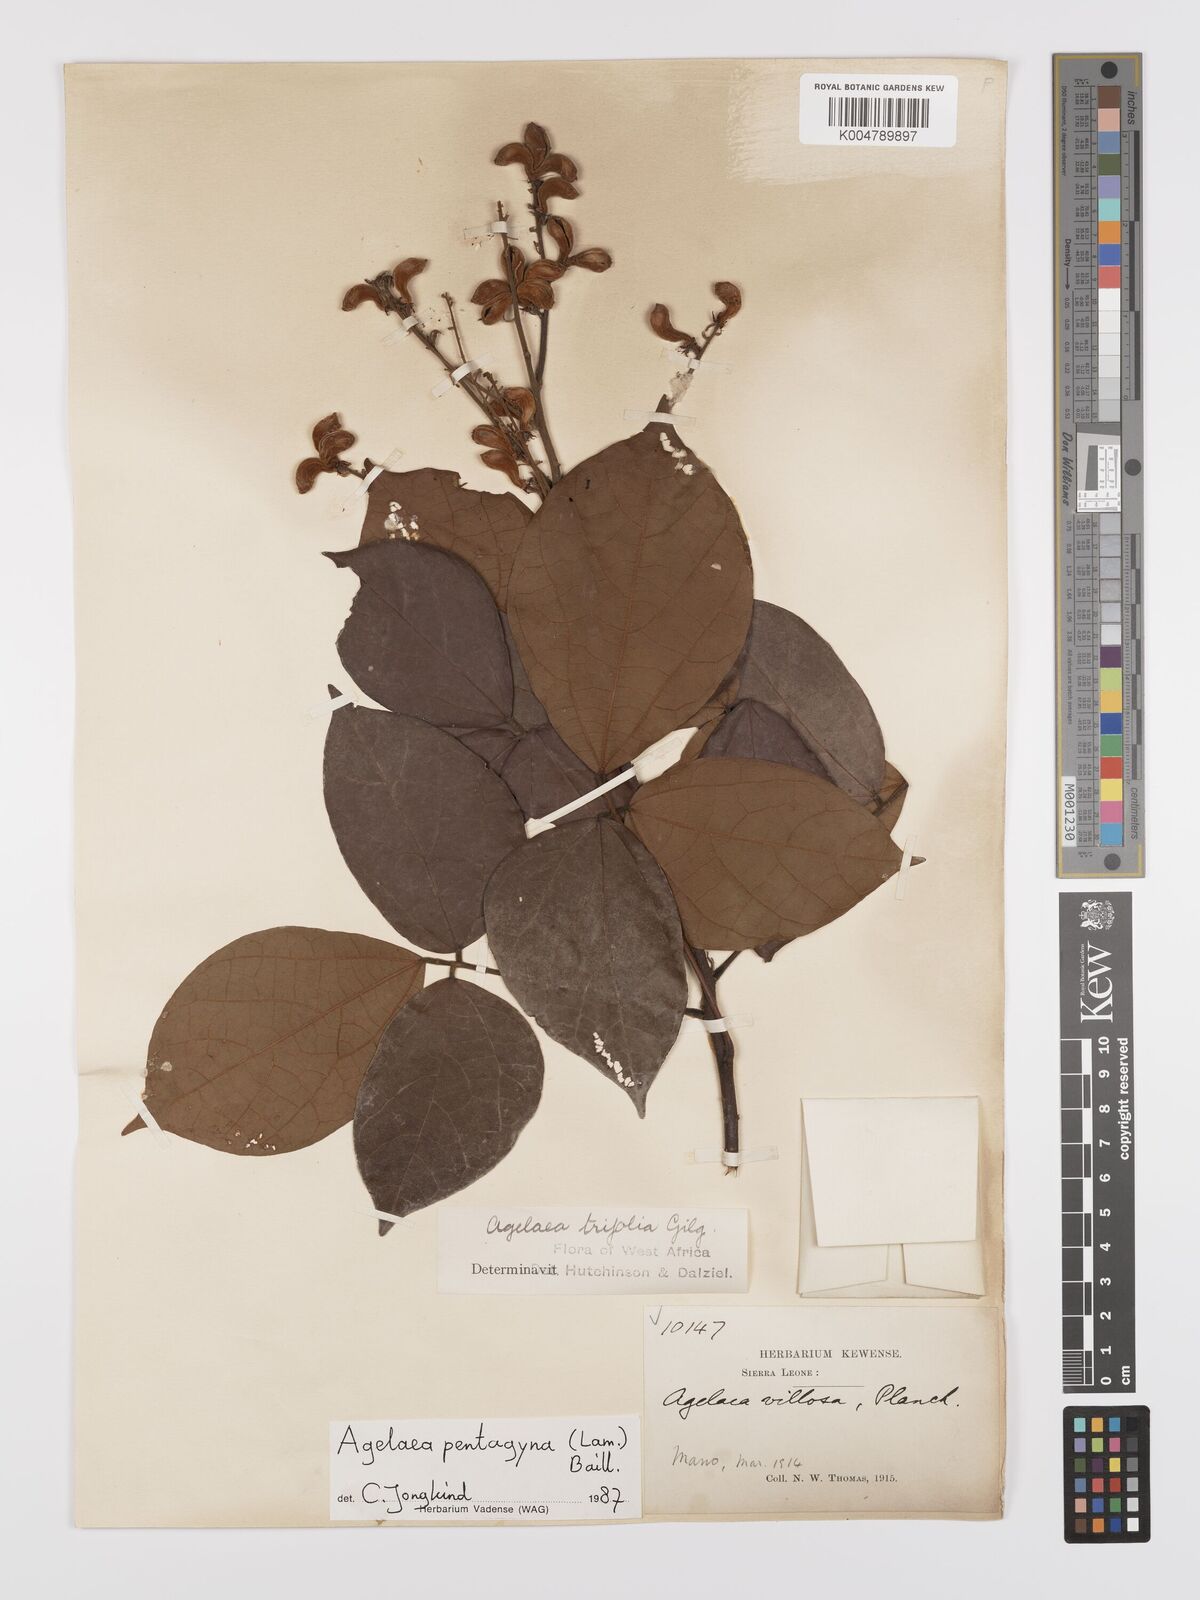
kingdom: Plantae
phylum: Tracheophyta
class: Magnoliopsida
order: Oxalidales
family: Connaraceae
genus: Agelaea
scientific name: Agelaea pentagyna
